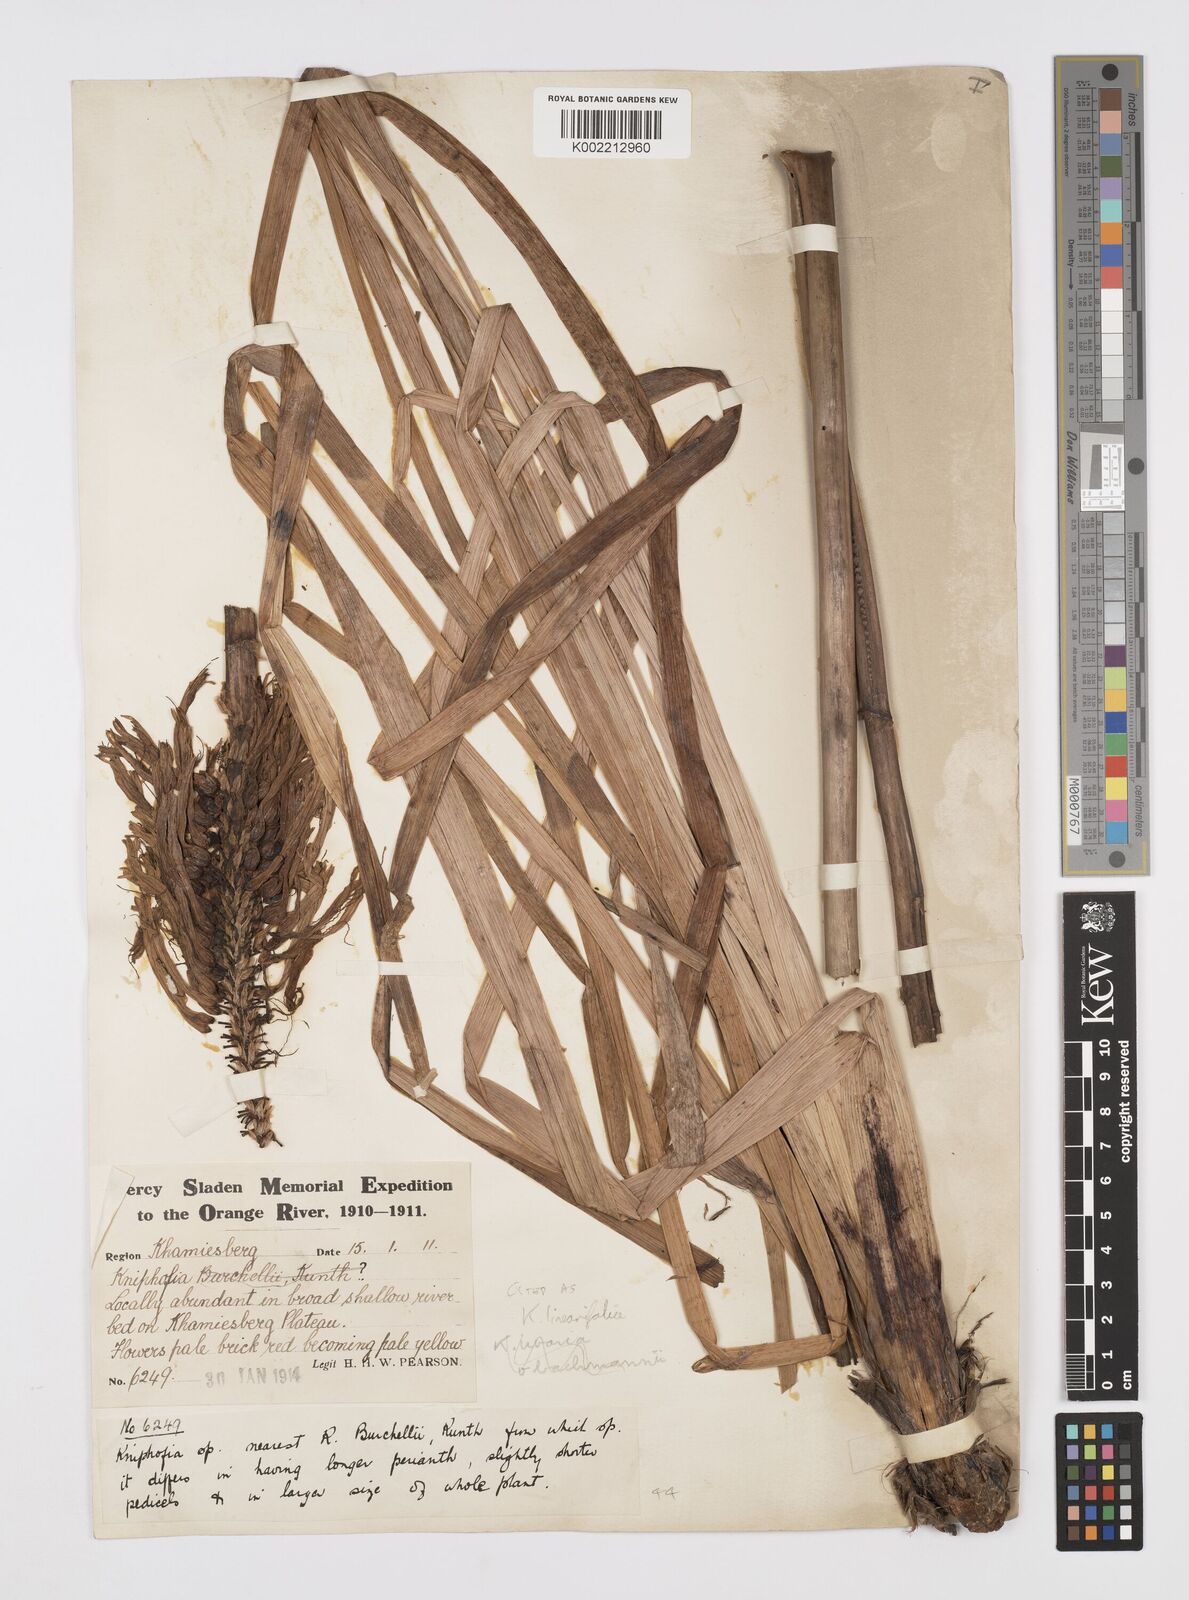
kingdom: Plantae
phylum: Tracheophyta
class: Liliopsida
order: Asparagales
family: Asphodelaceae
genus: Kniphofia
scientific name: Kniphofia linearifolia
